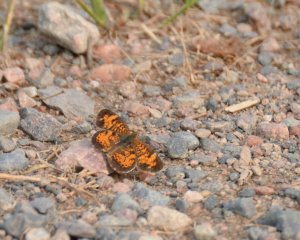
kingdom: Animalia
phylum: Arthropoda
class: Insecta
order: Lepidoptera
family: Nymphalidae
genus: Phyciodes
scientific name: Phyciodes tharos
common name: Northern Crescent
